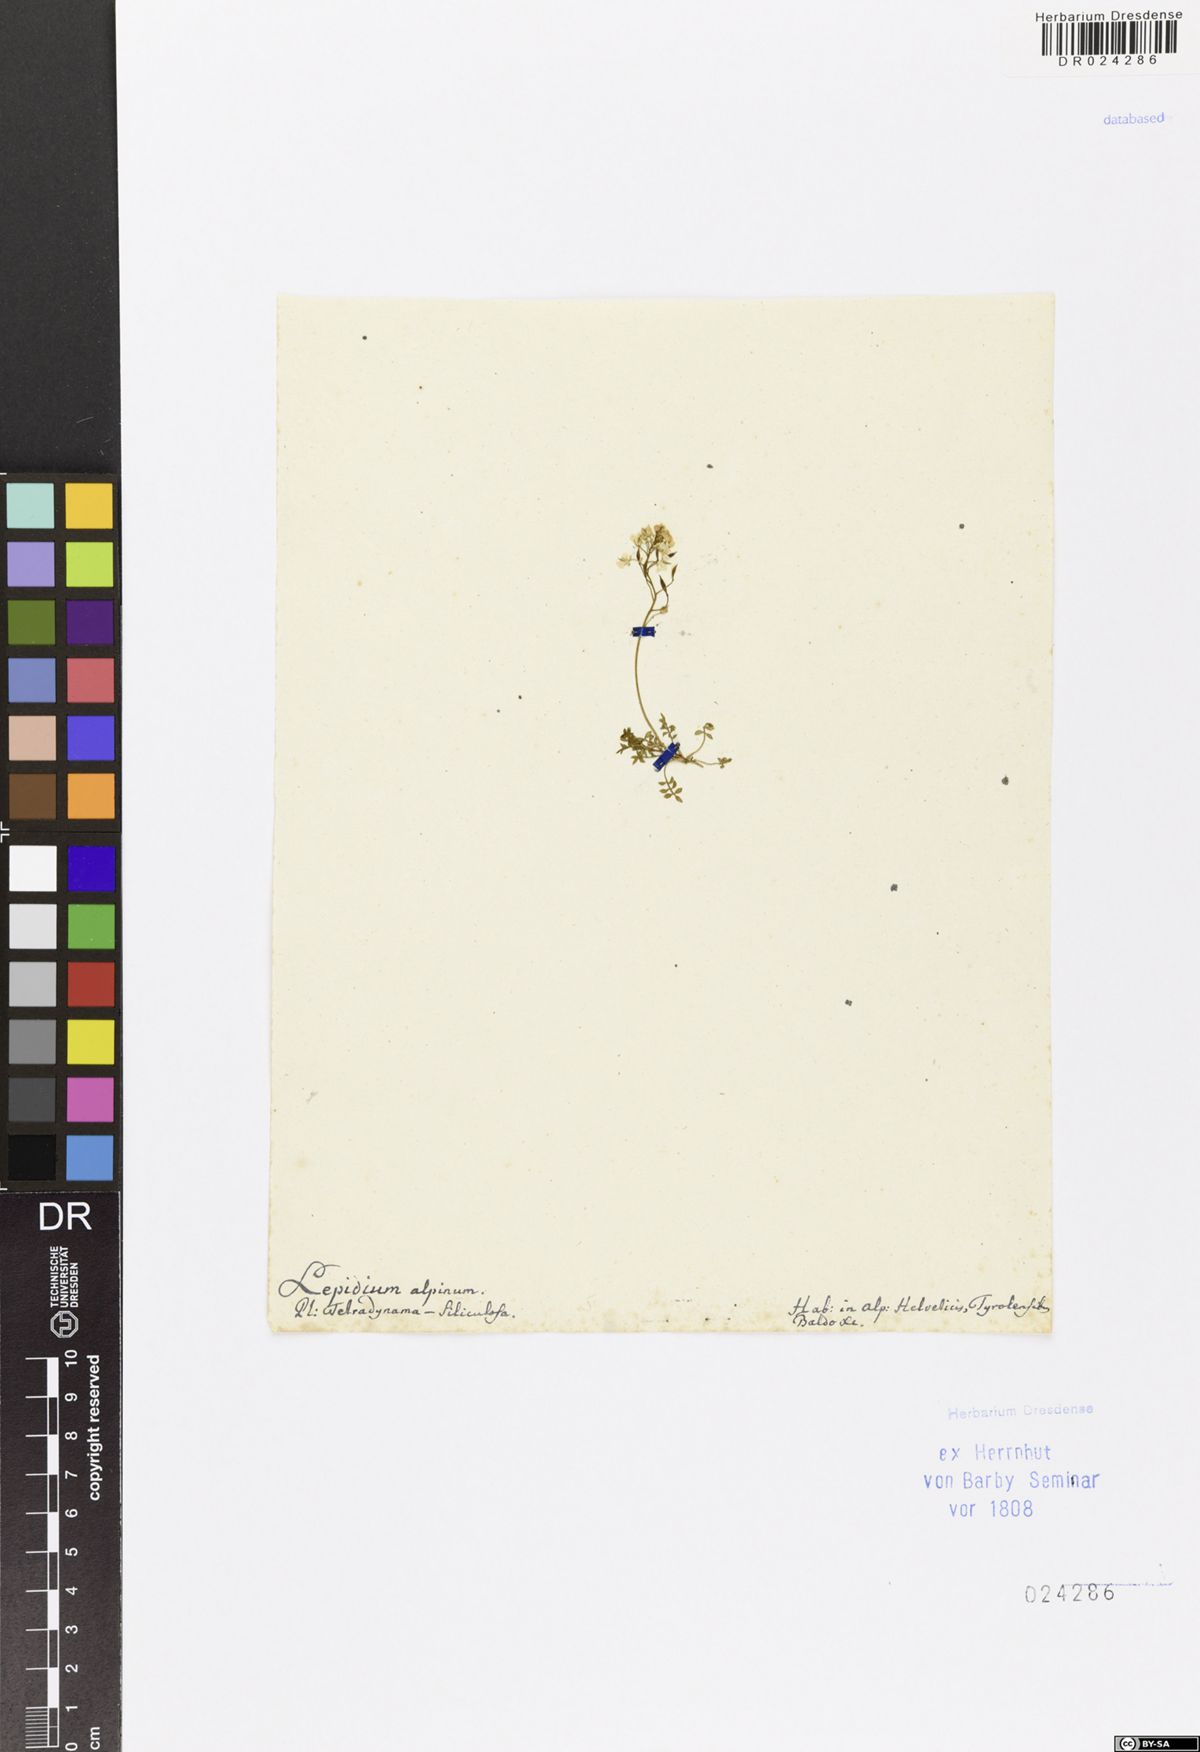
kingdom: Plantae
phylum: Tracheophyta
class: Magnoliopsida
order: Brassicales
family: Brassicaceae
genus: Hornungia
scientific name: Hornungia alpina
